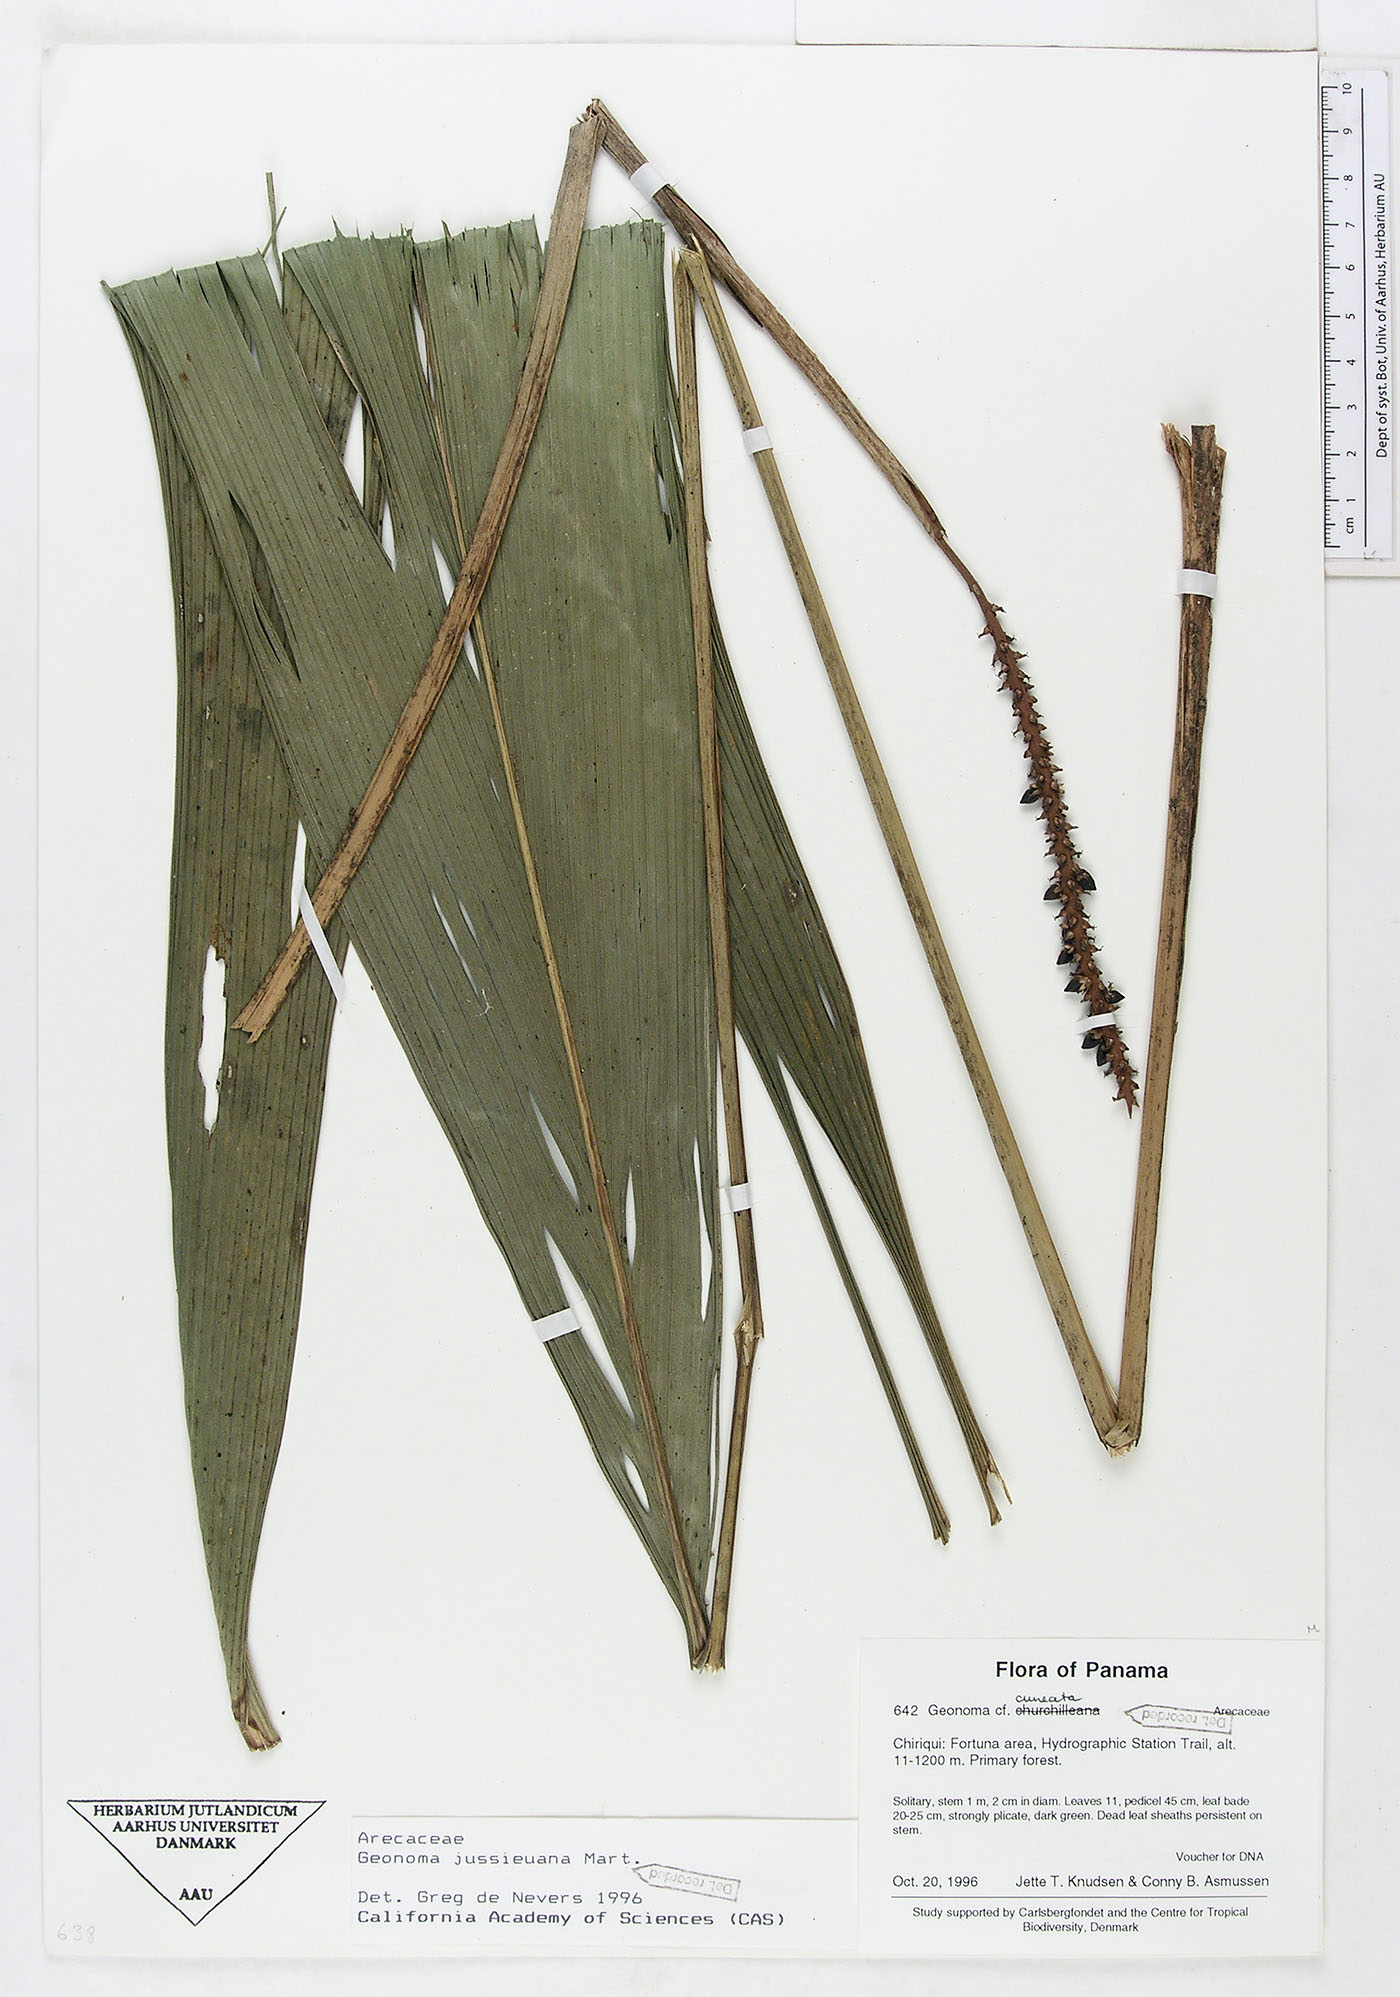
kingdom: Plantae
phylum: Tracheophyta
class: Liliopsida
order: Arecales
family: Arecaceae
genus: Geonoma
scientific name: Geonoma orbignyana
